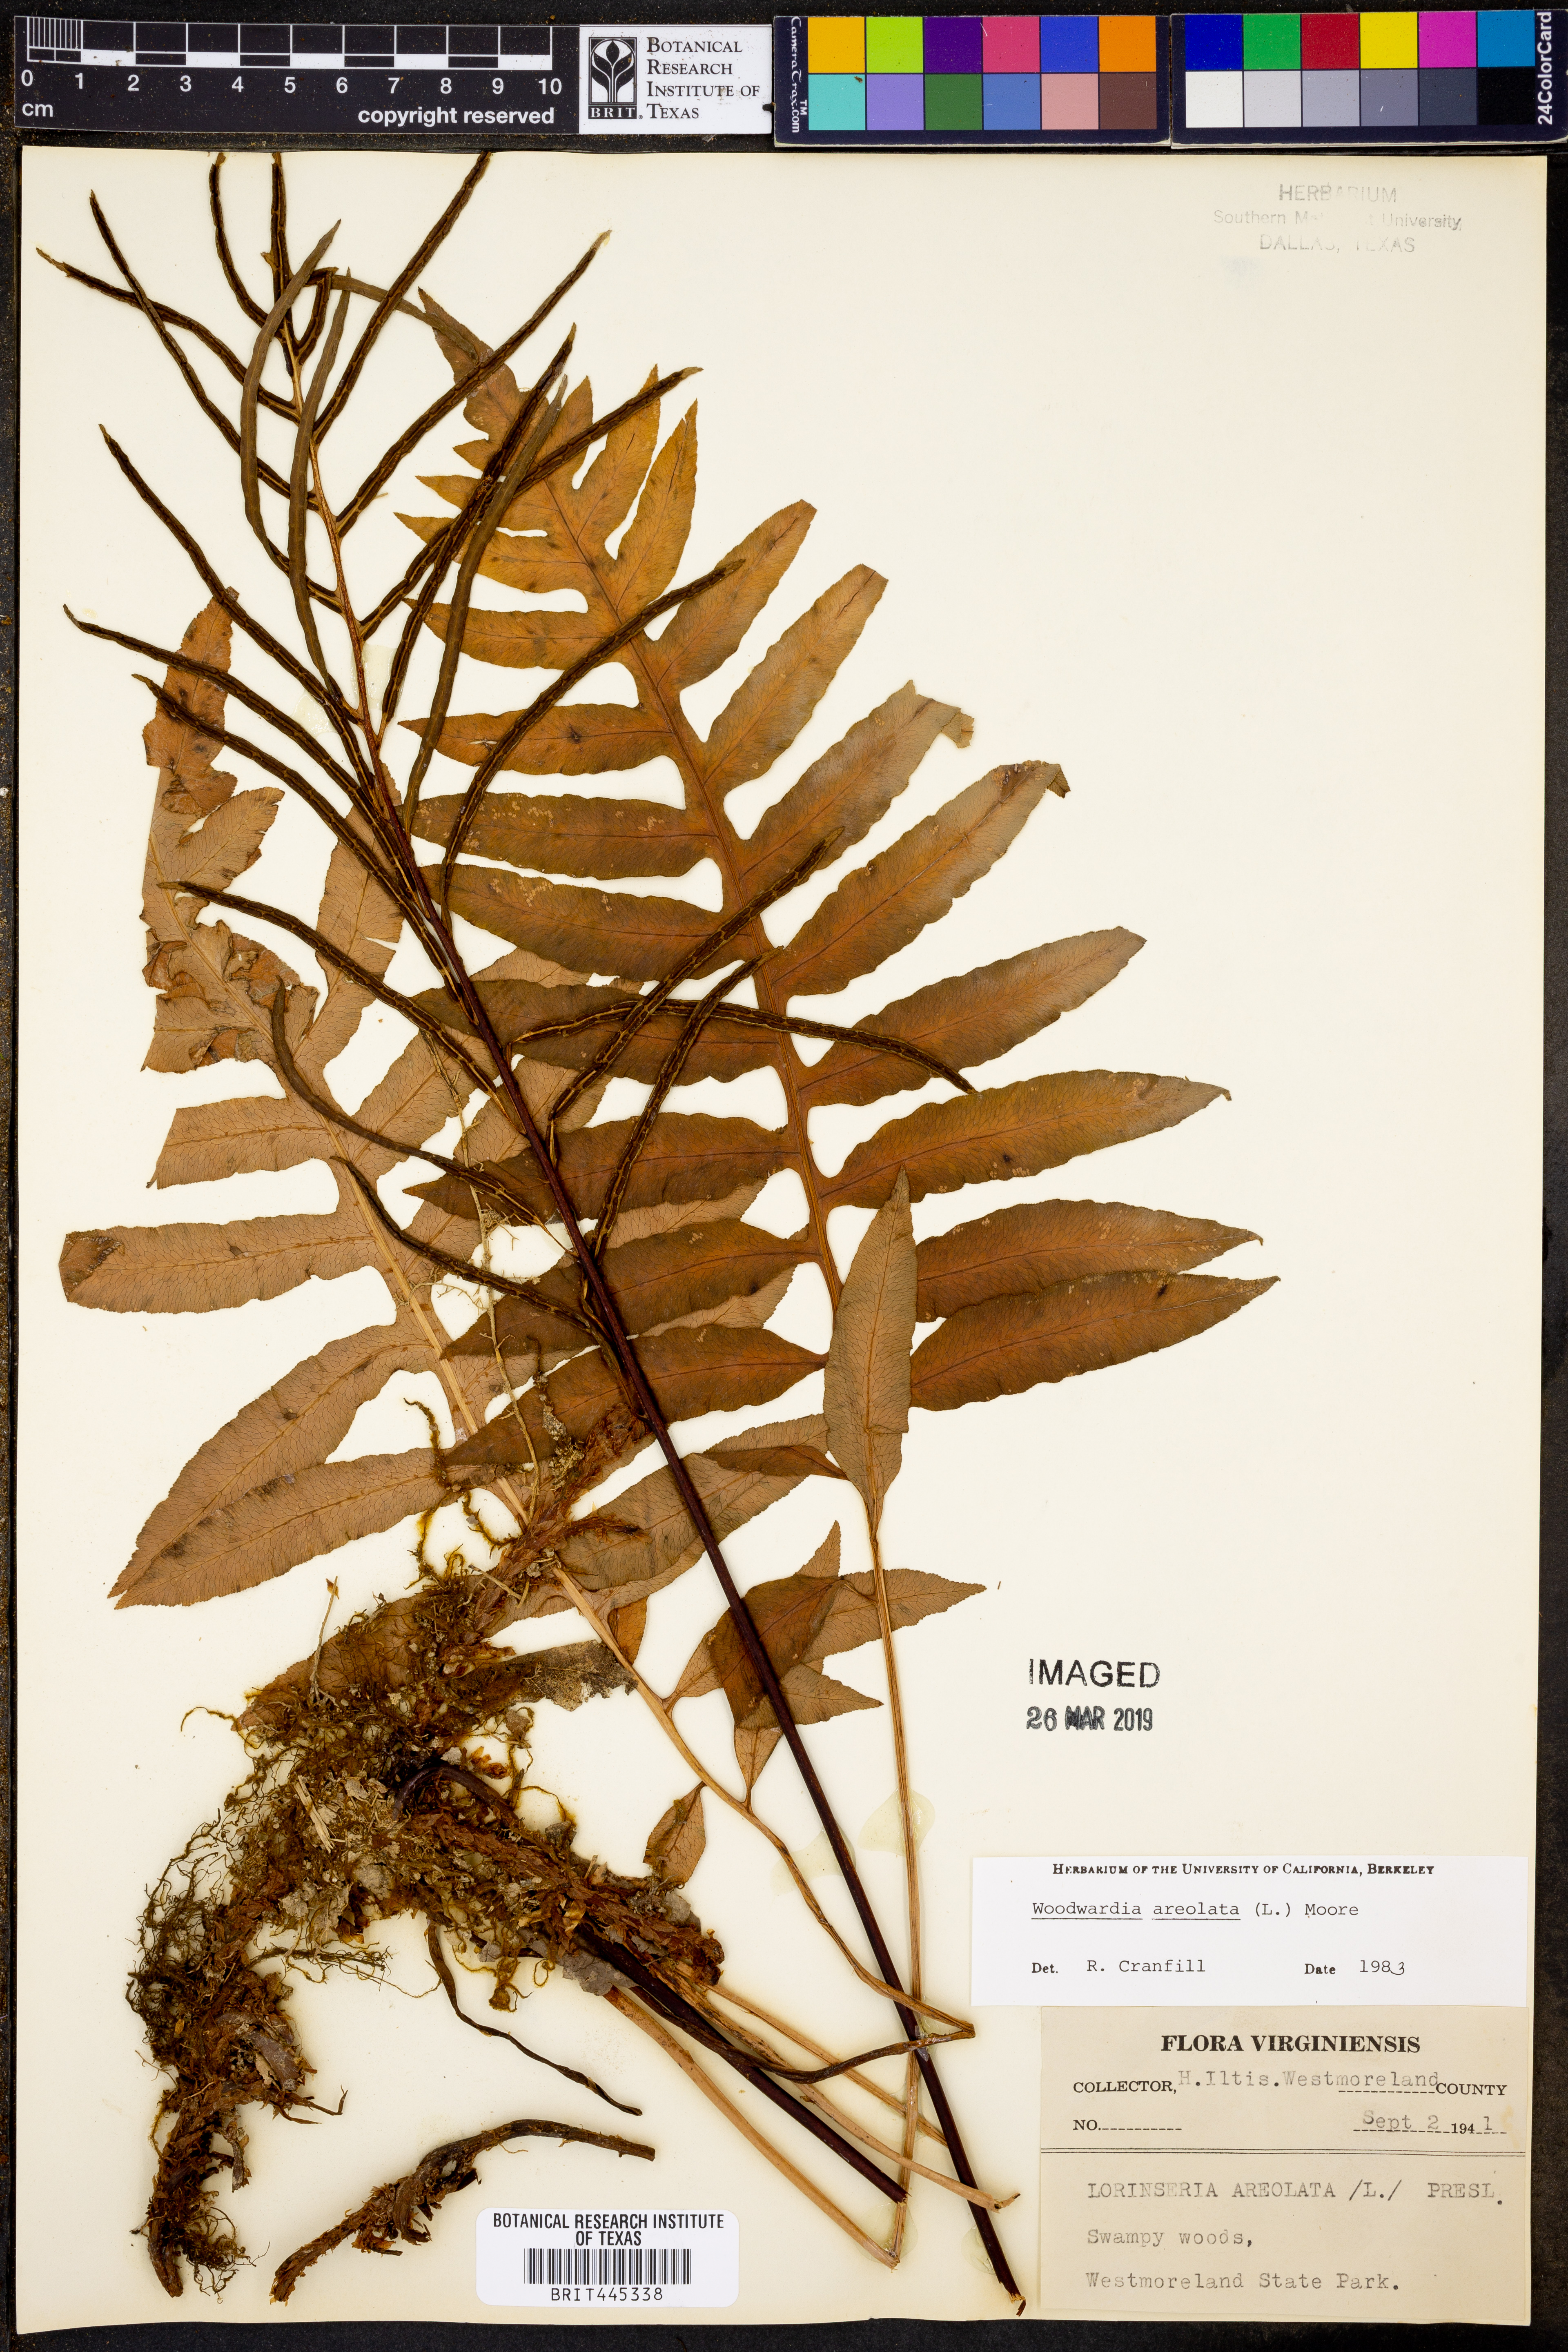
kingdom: Plantae
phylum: Tracheophyta
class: Polypodiopsida
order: Polypodiales
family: Blechnaceae
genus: Lorinseria
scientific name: Lorinseria areolata
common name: Dwarf chain fern
